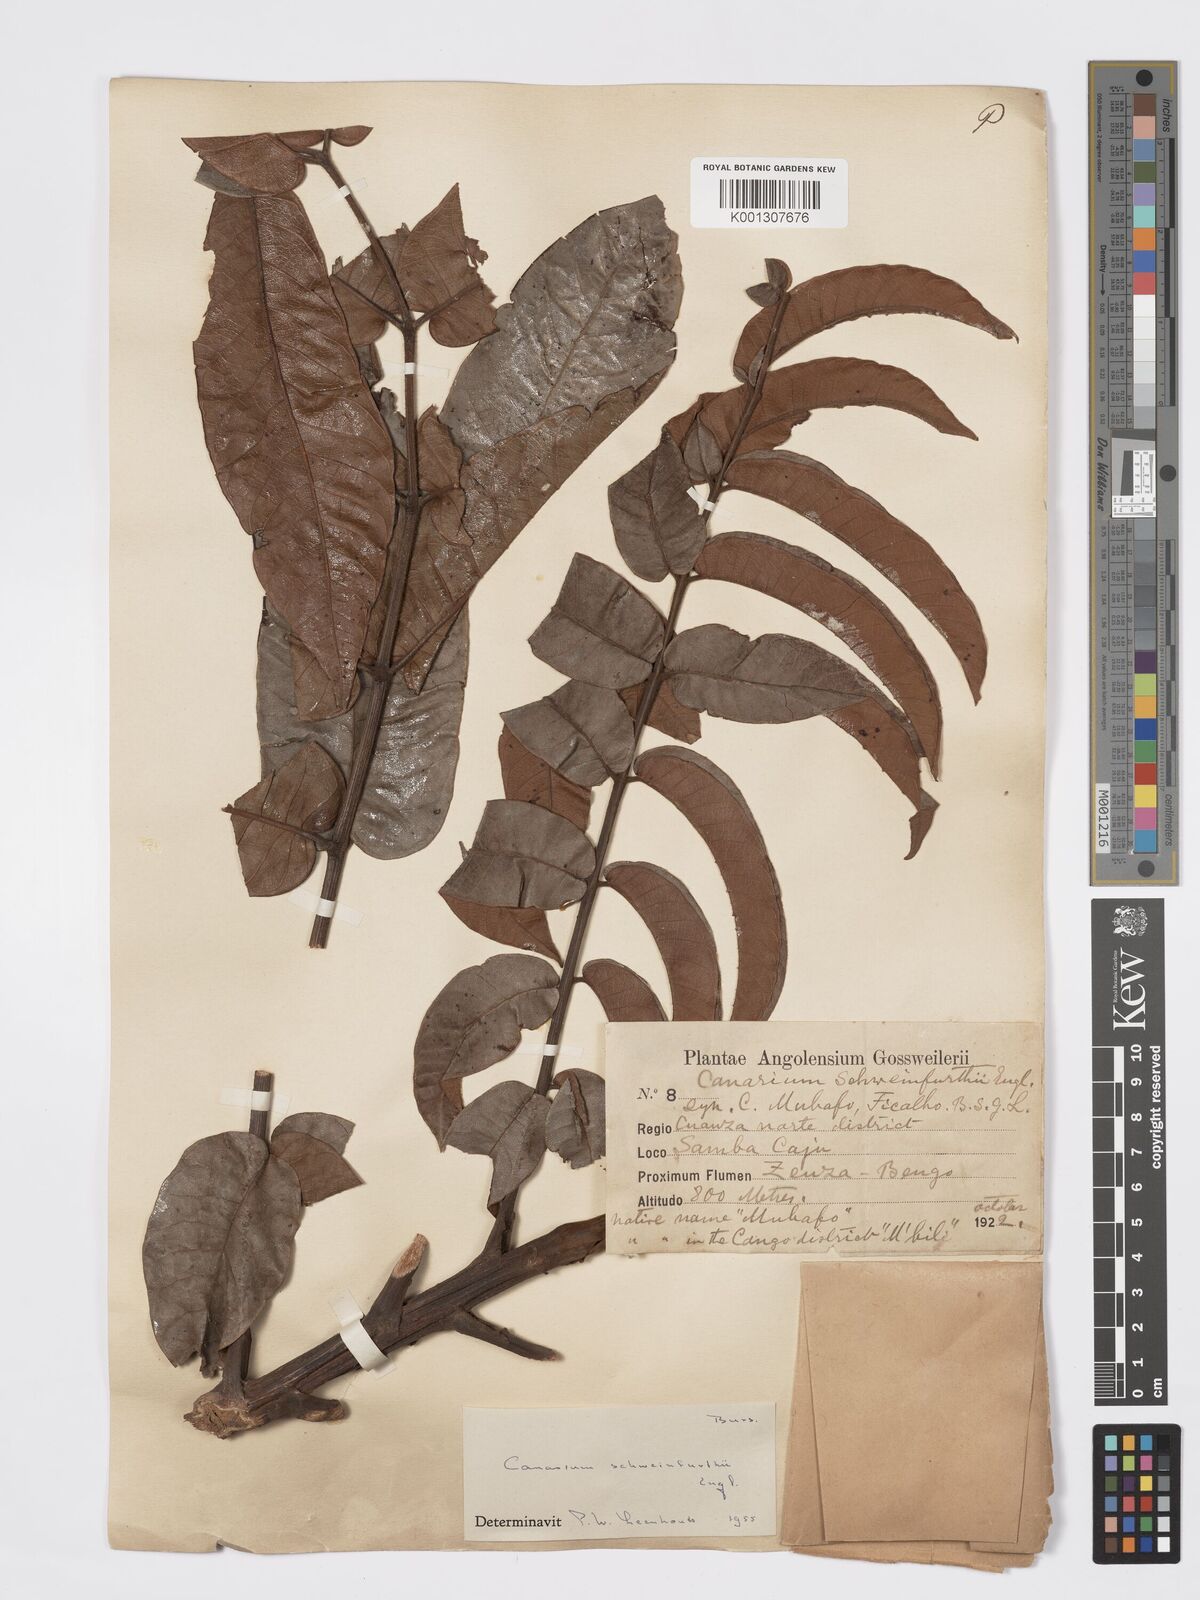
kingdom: Plantae
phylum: Tracheophyta
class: Magnoliopsida
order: Sapindales
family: Burseraceae
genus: Canarium
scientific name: Canarium schweinfurthii
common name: African elemi
